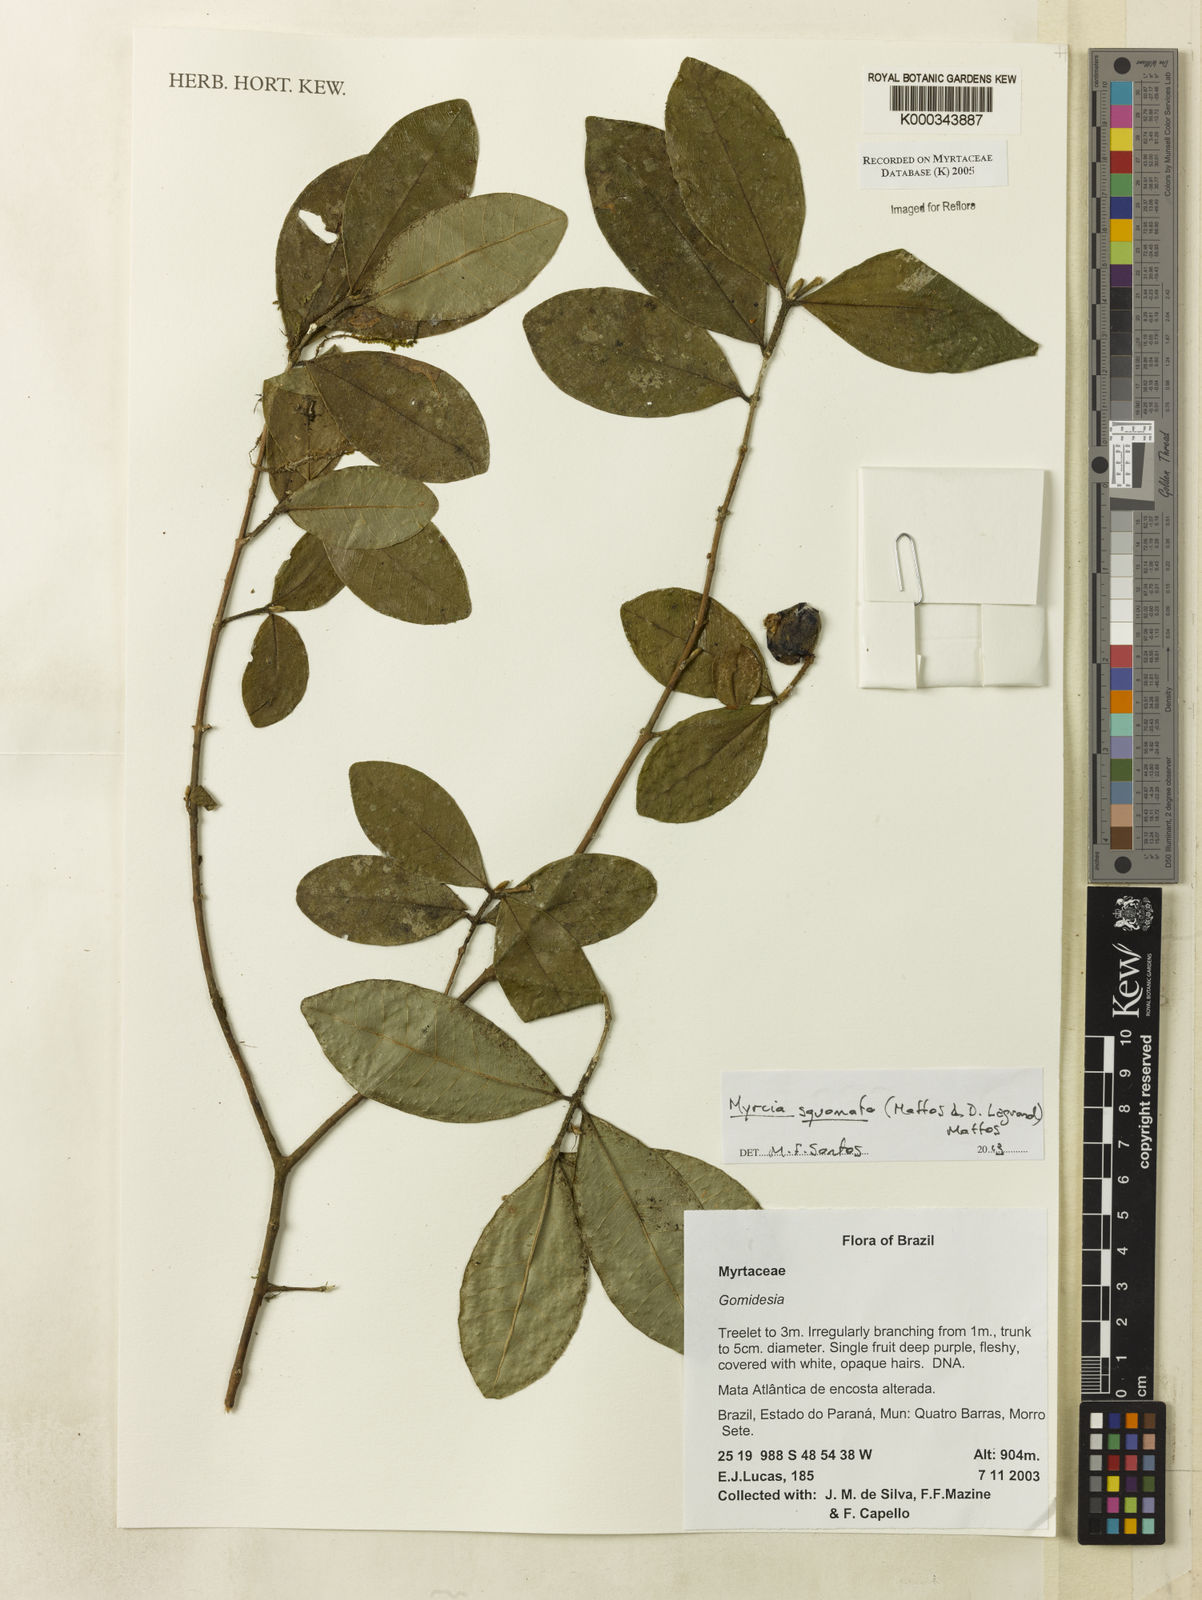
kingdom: Plantae
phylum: Tracheophyta
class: Magnoliopsida
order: Myrtales
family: Myrtaceae
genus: Myrcia
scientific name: Myrcia
